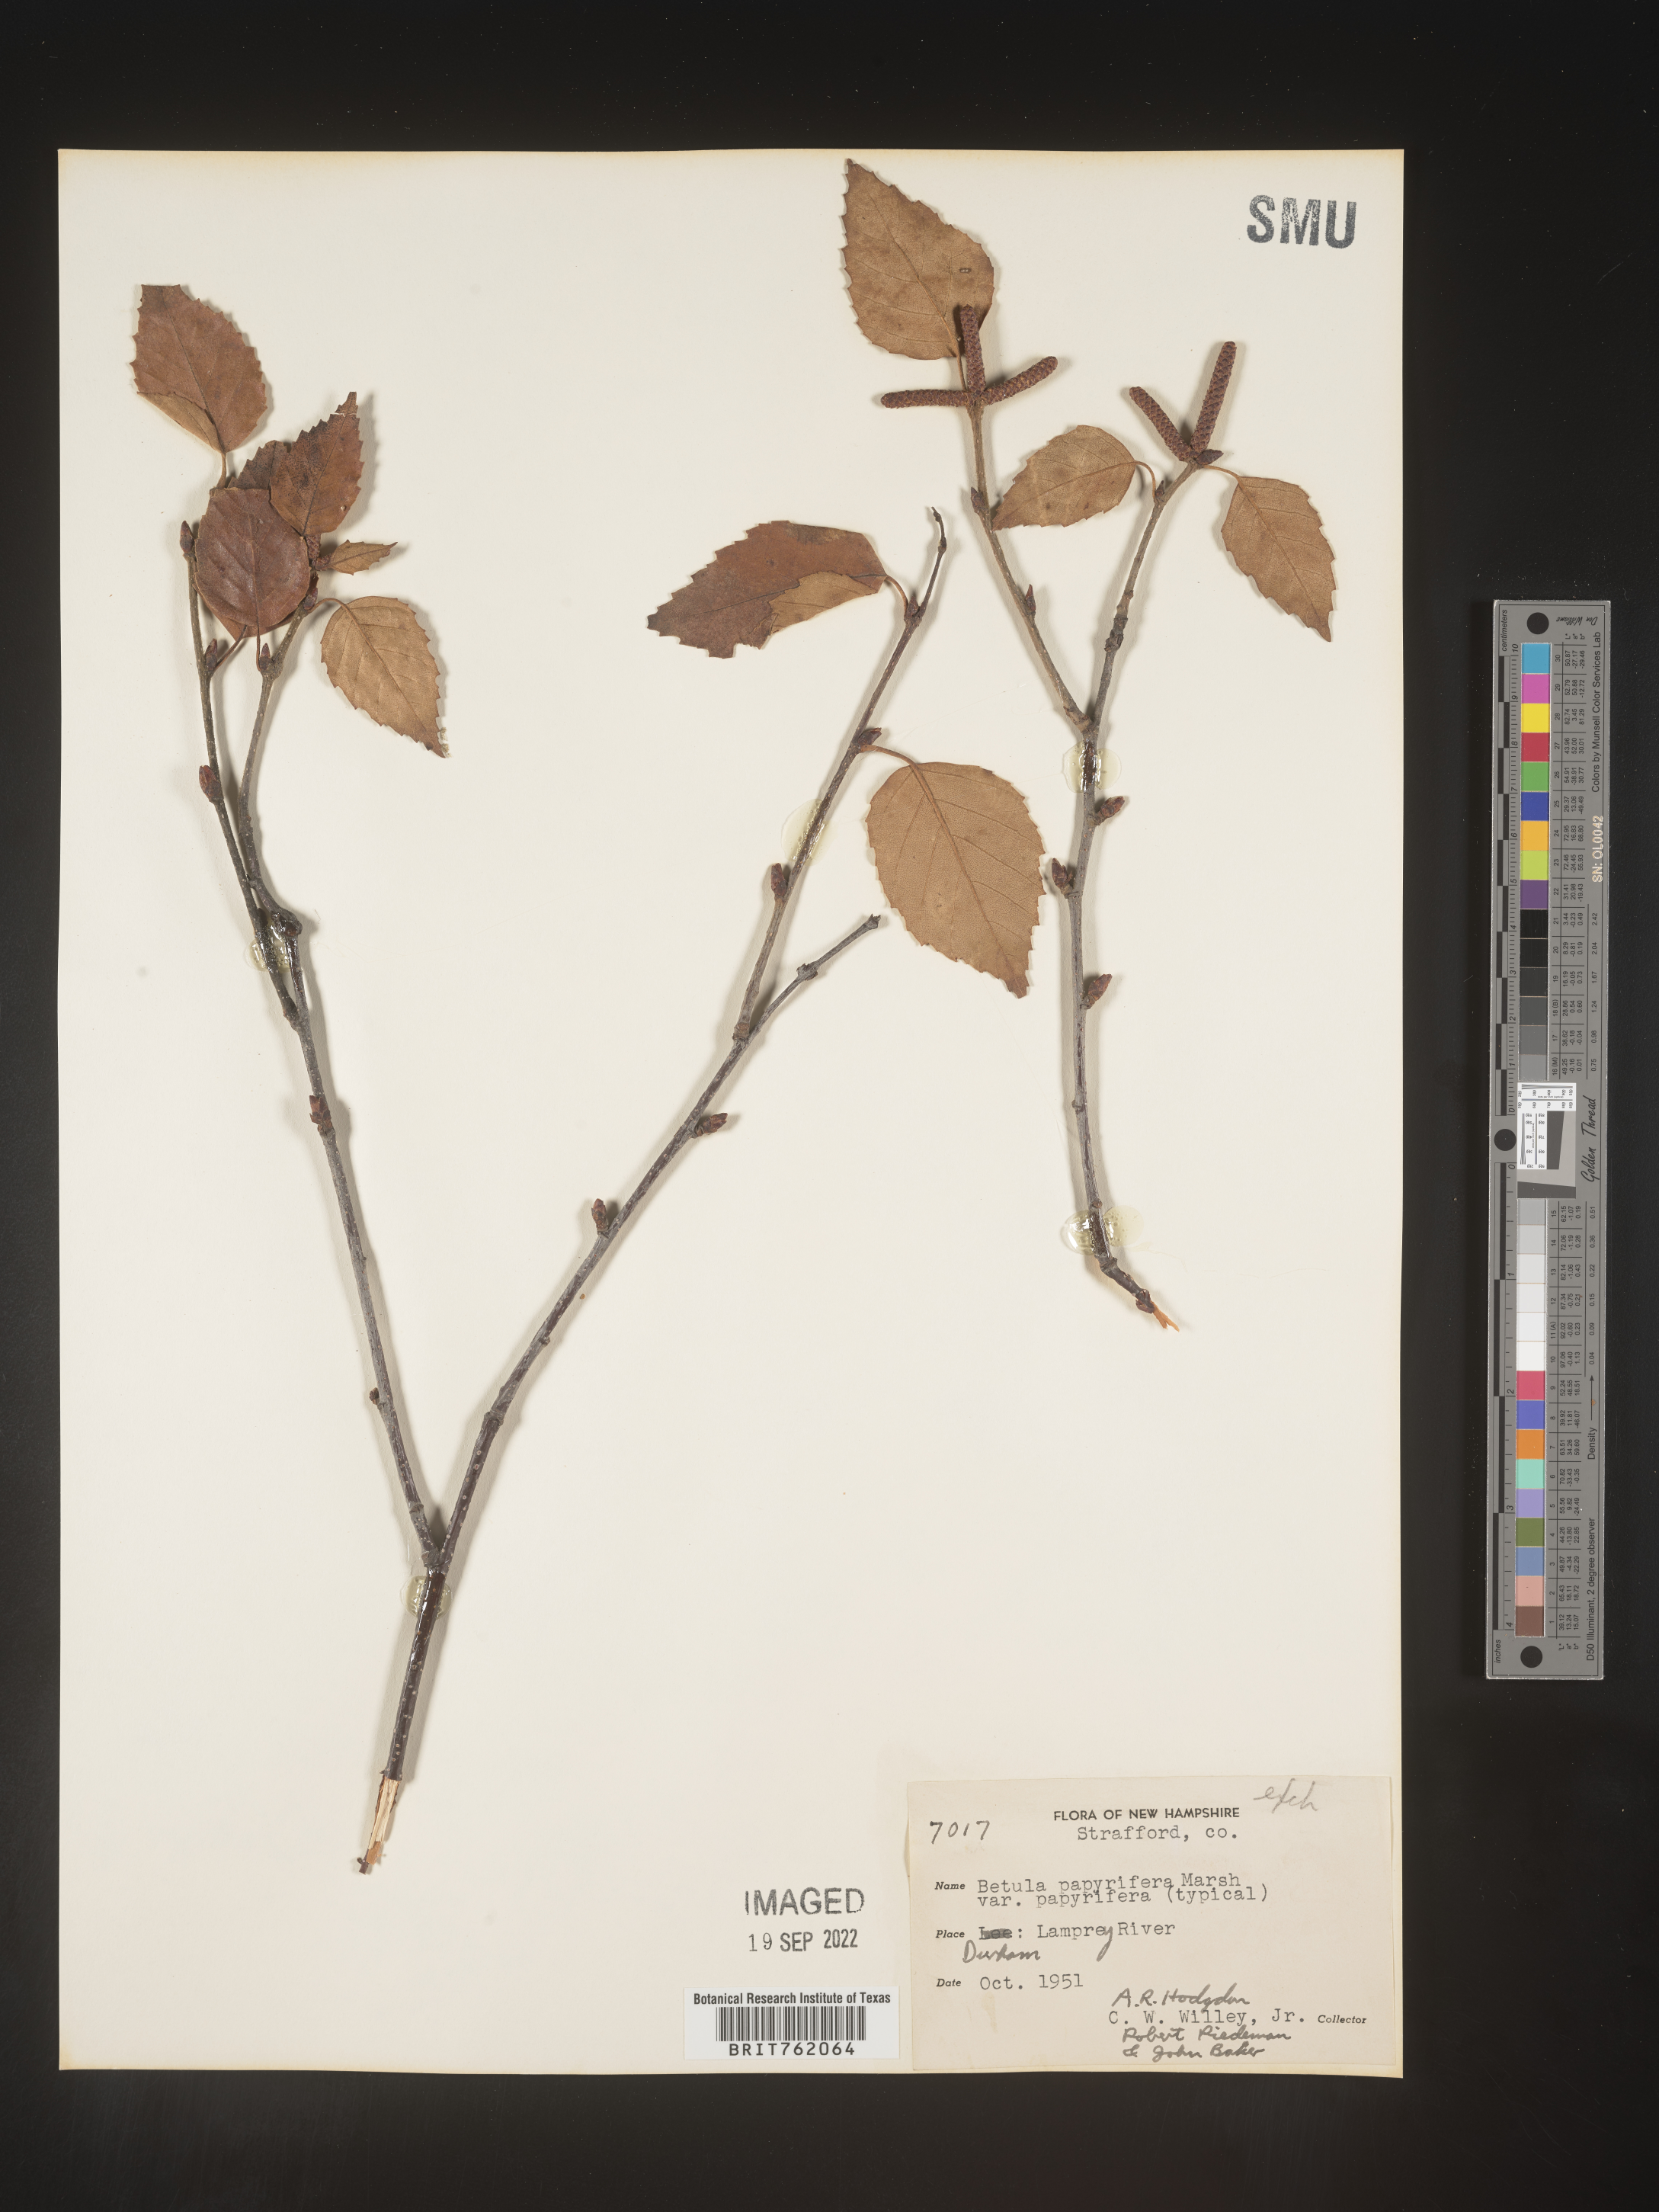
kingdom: Plantae
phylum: Tracheophyta
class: Magnoliopsida
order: Fagales
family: Betulaceae
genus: Betula
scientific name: Betula papyrifera
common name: Paper birch
